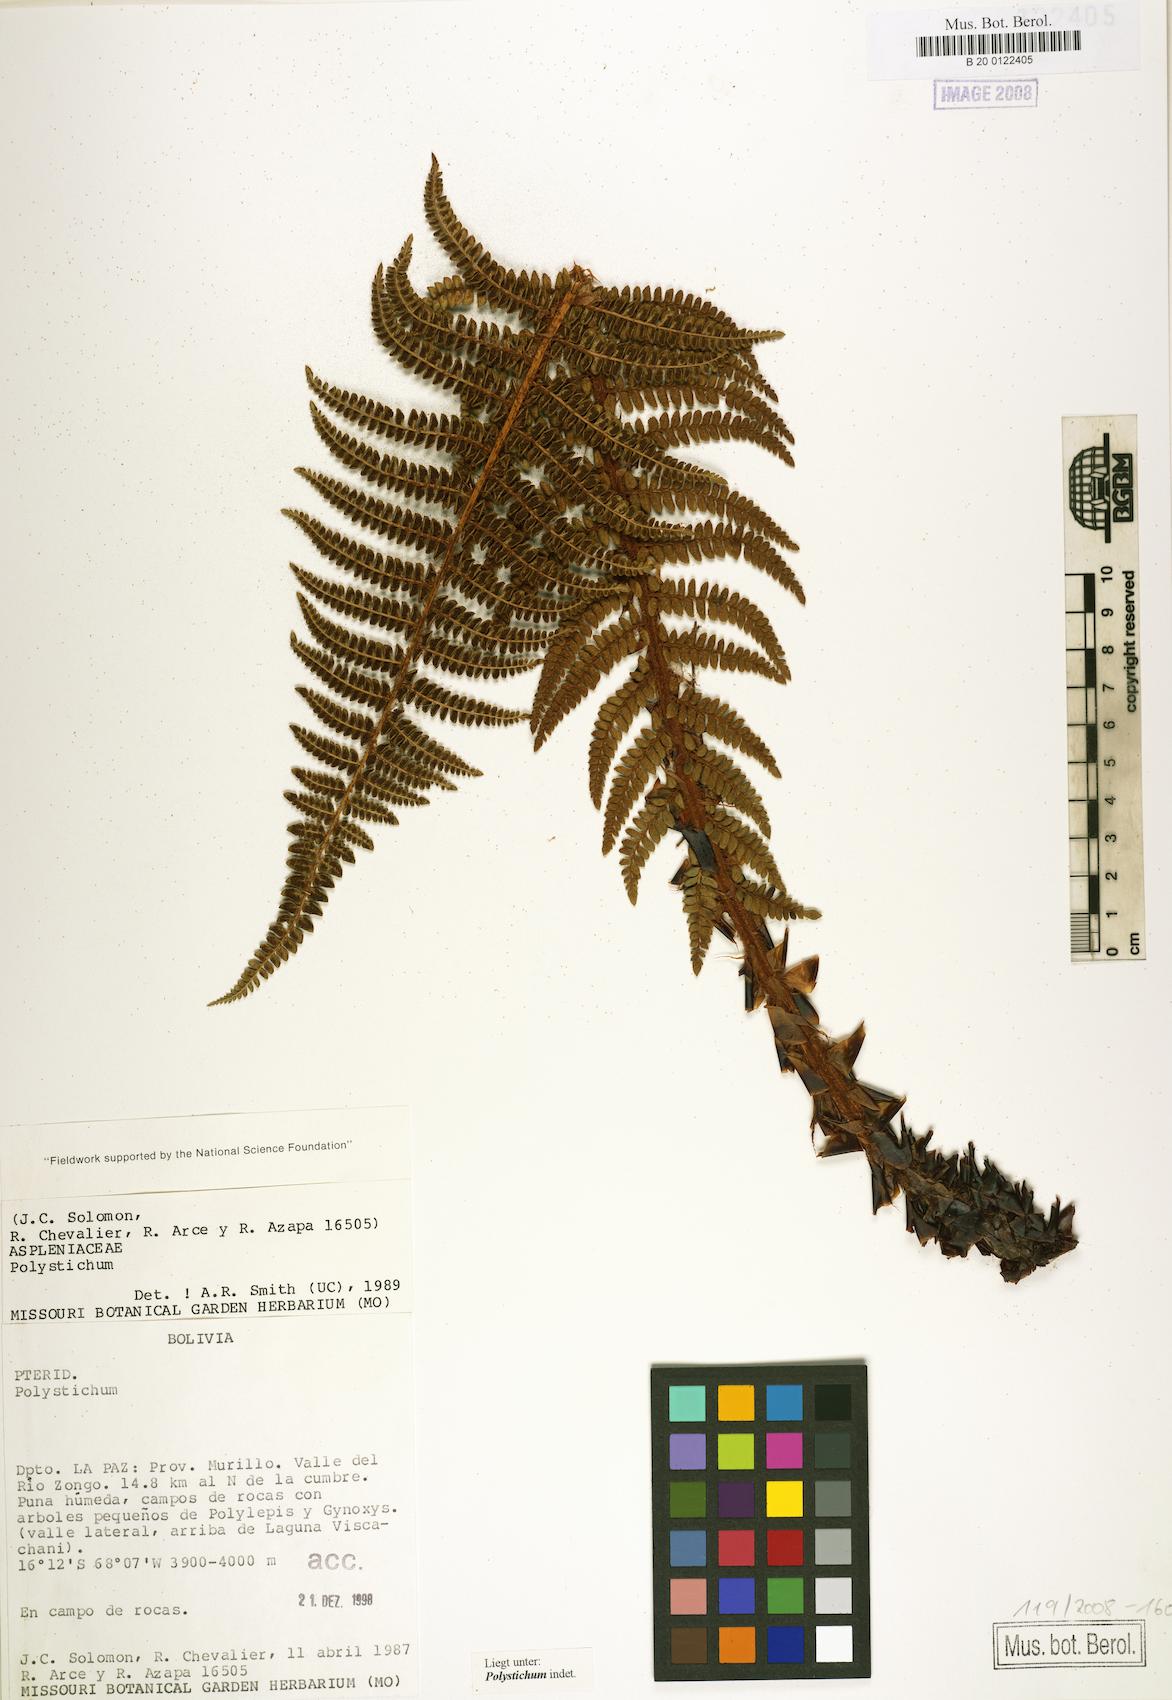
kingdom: Plantae
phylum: Tracheophyta
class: Polypodiopsida
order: Polypodiales
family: Dryopteridaceae
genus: Polystichum
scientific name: Polystichum
